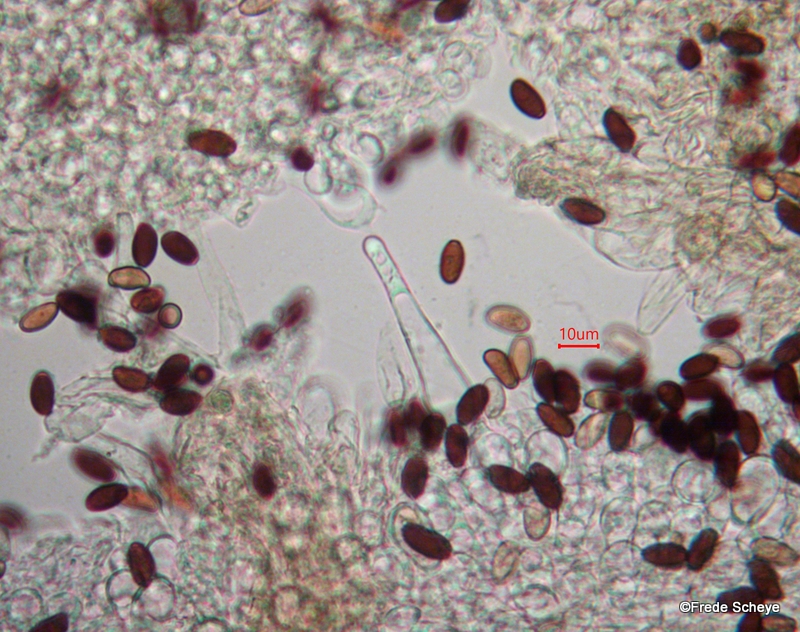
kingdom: Fungi
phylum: Basidiomycota
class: Agaricomycetes
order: Agaricales
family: Psathyrellaceae
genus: Psathyrella
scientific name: Psathyrella corrugis
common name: rødægget mørkhat
